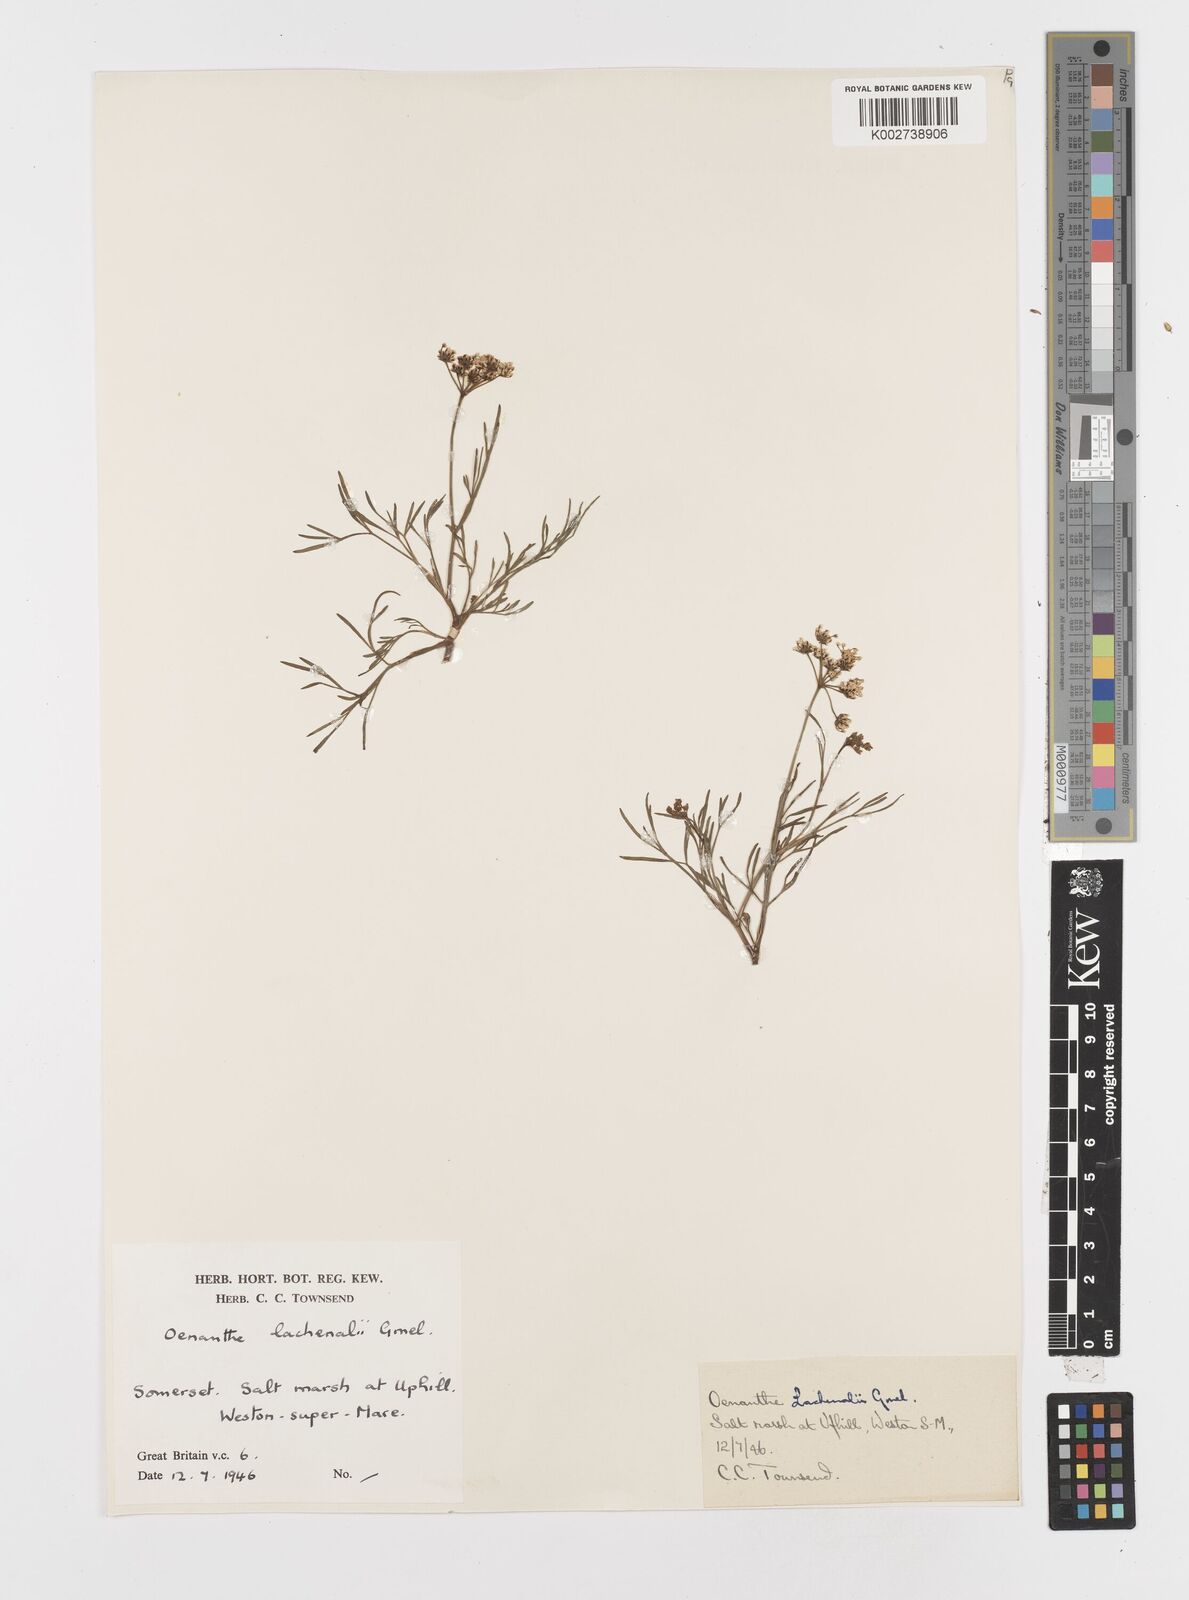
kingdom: Plantae
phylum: Tracheophyta
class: Magnoliopsida
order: Apiales
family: Apiaceae
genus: Oenanthe
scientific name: Oenanthe lachenalii
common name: Parsley water-dropwort
